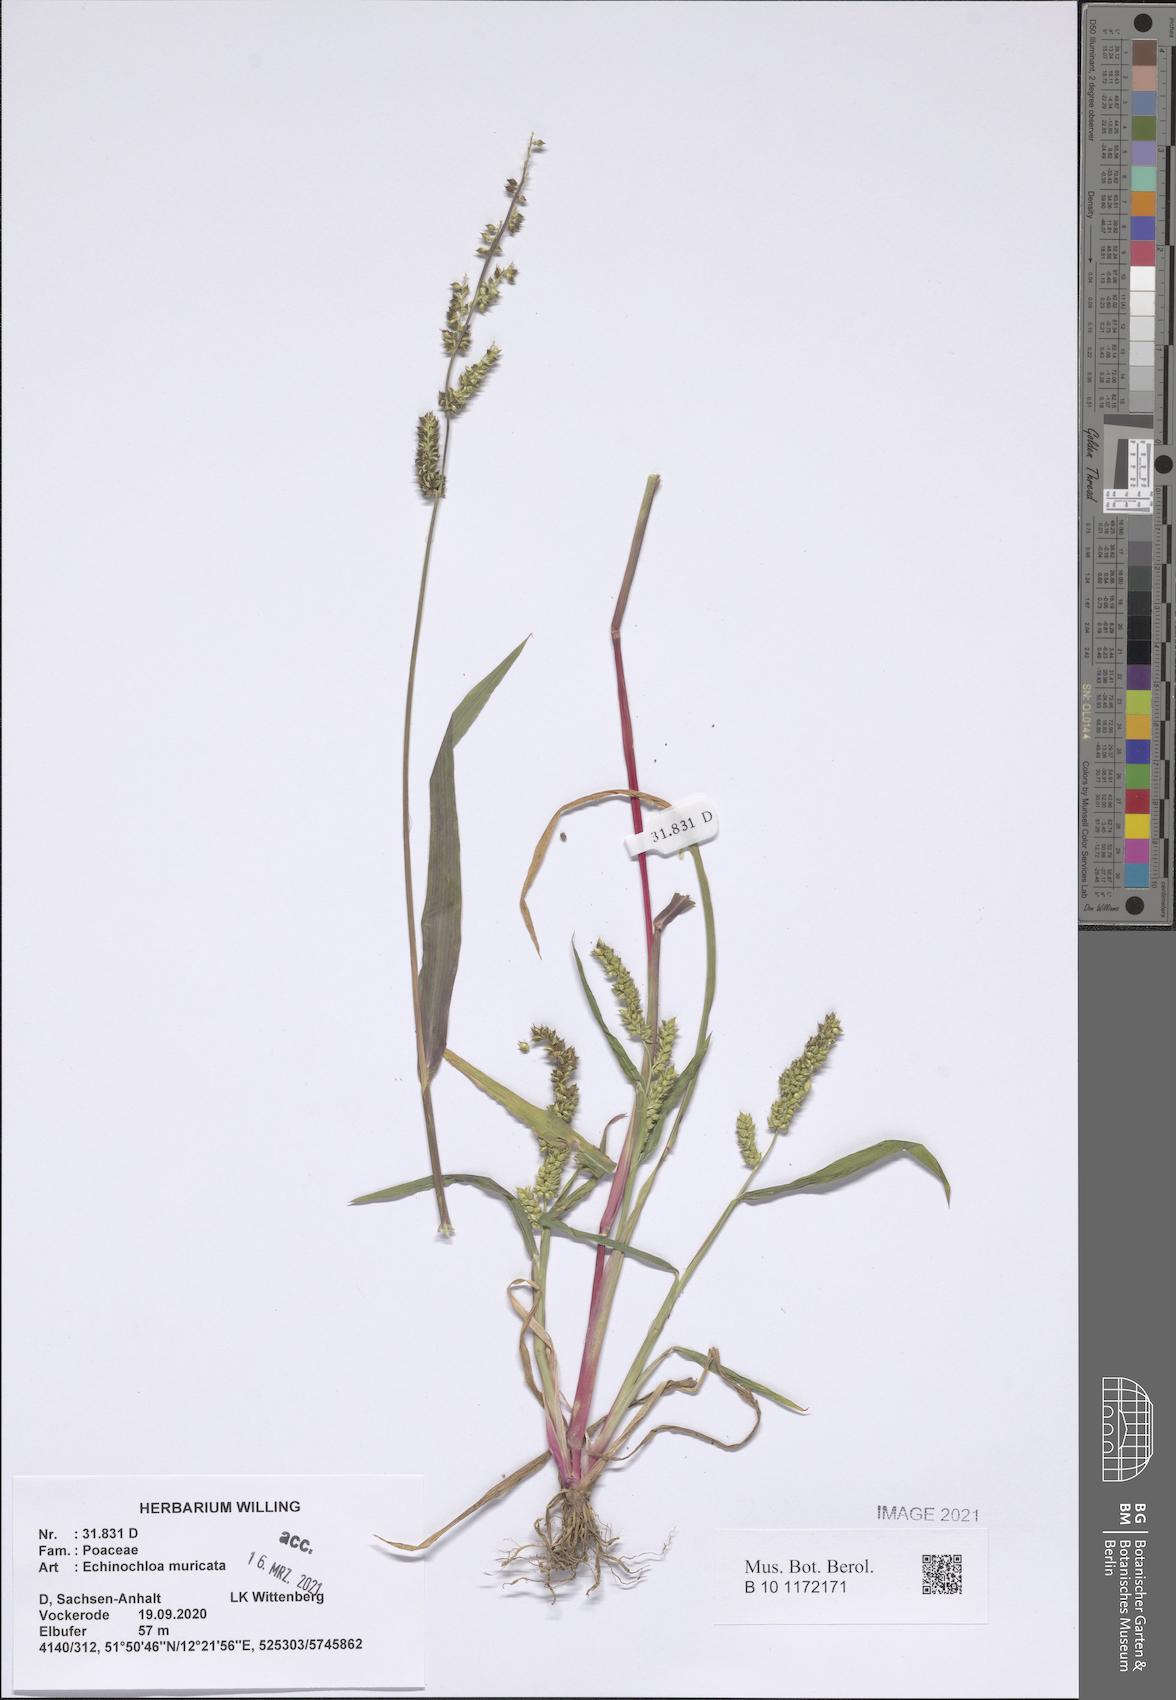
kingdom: Plantae
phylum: Tracheophyta
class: Liliopsida
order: Poales
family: Poaceae
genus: Echinochloa
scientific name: Echinochloa muricata
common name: American barnyard grass
